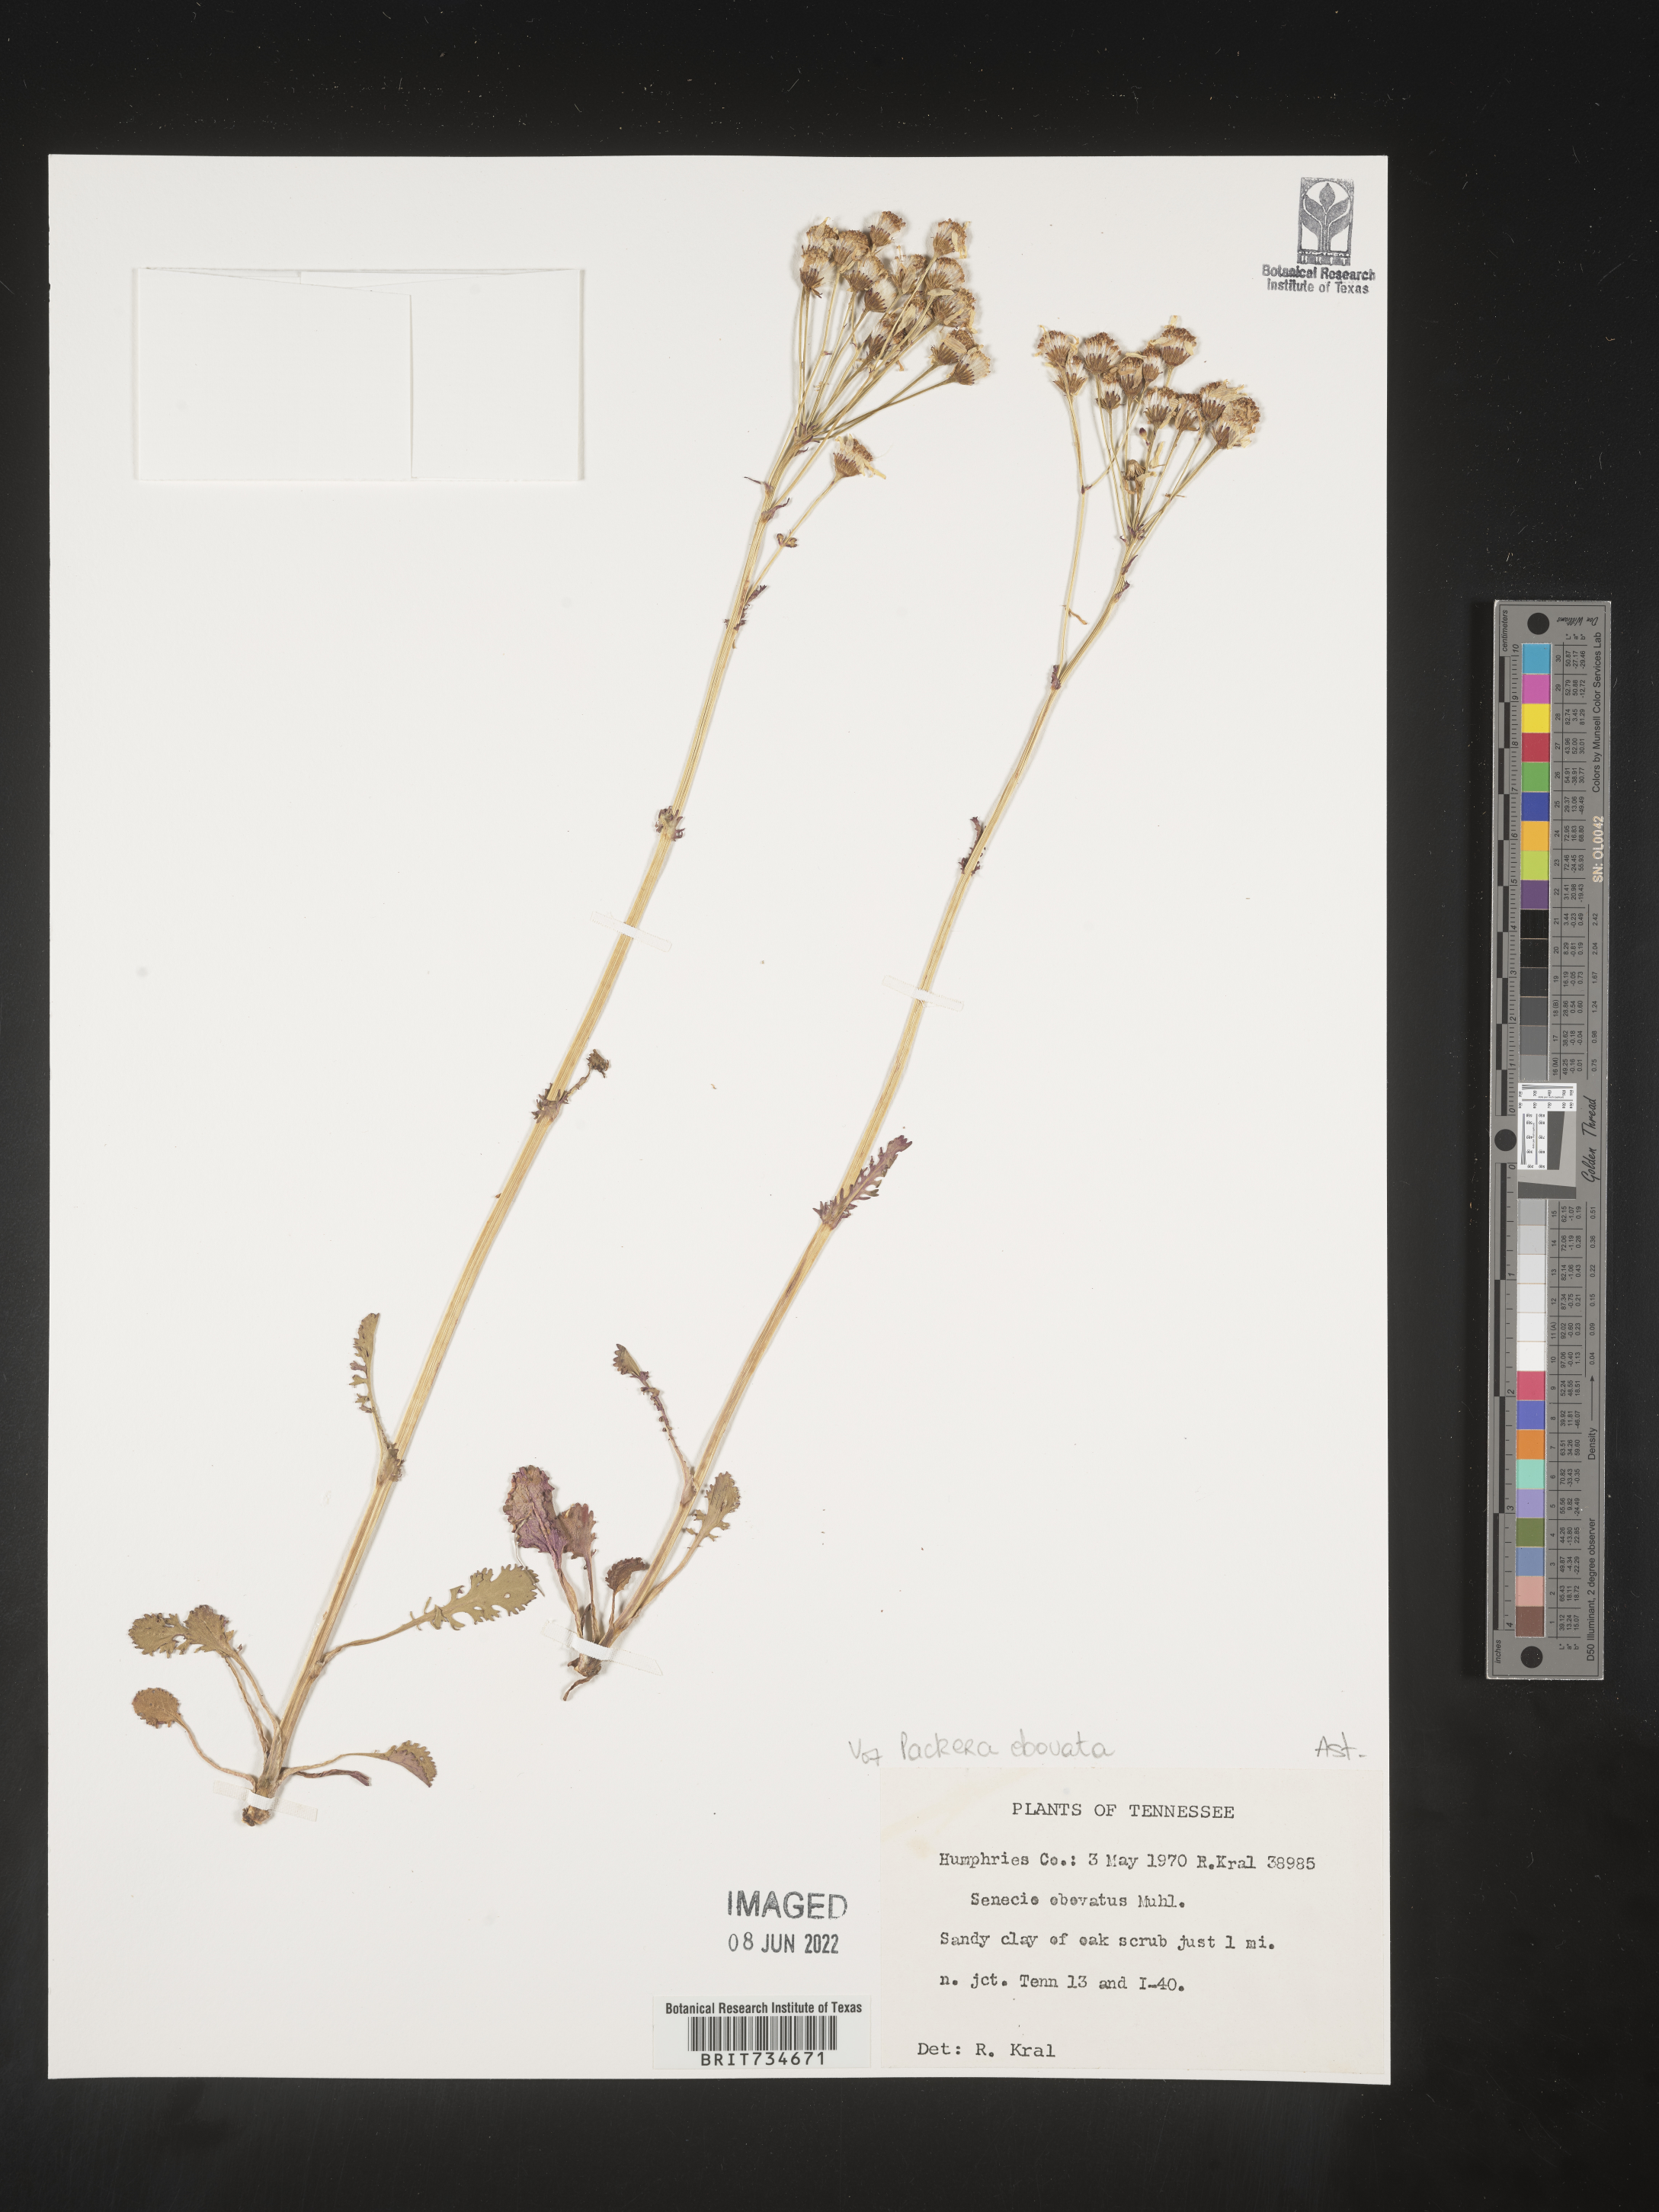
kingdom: Plantae
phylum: Tracheophyta
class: Magnoliopsida
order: Asterales
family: Asteraceae
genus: Packera
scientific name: Packera obovata
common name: Round-leaf ragwort
